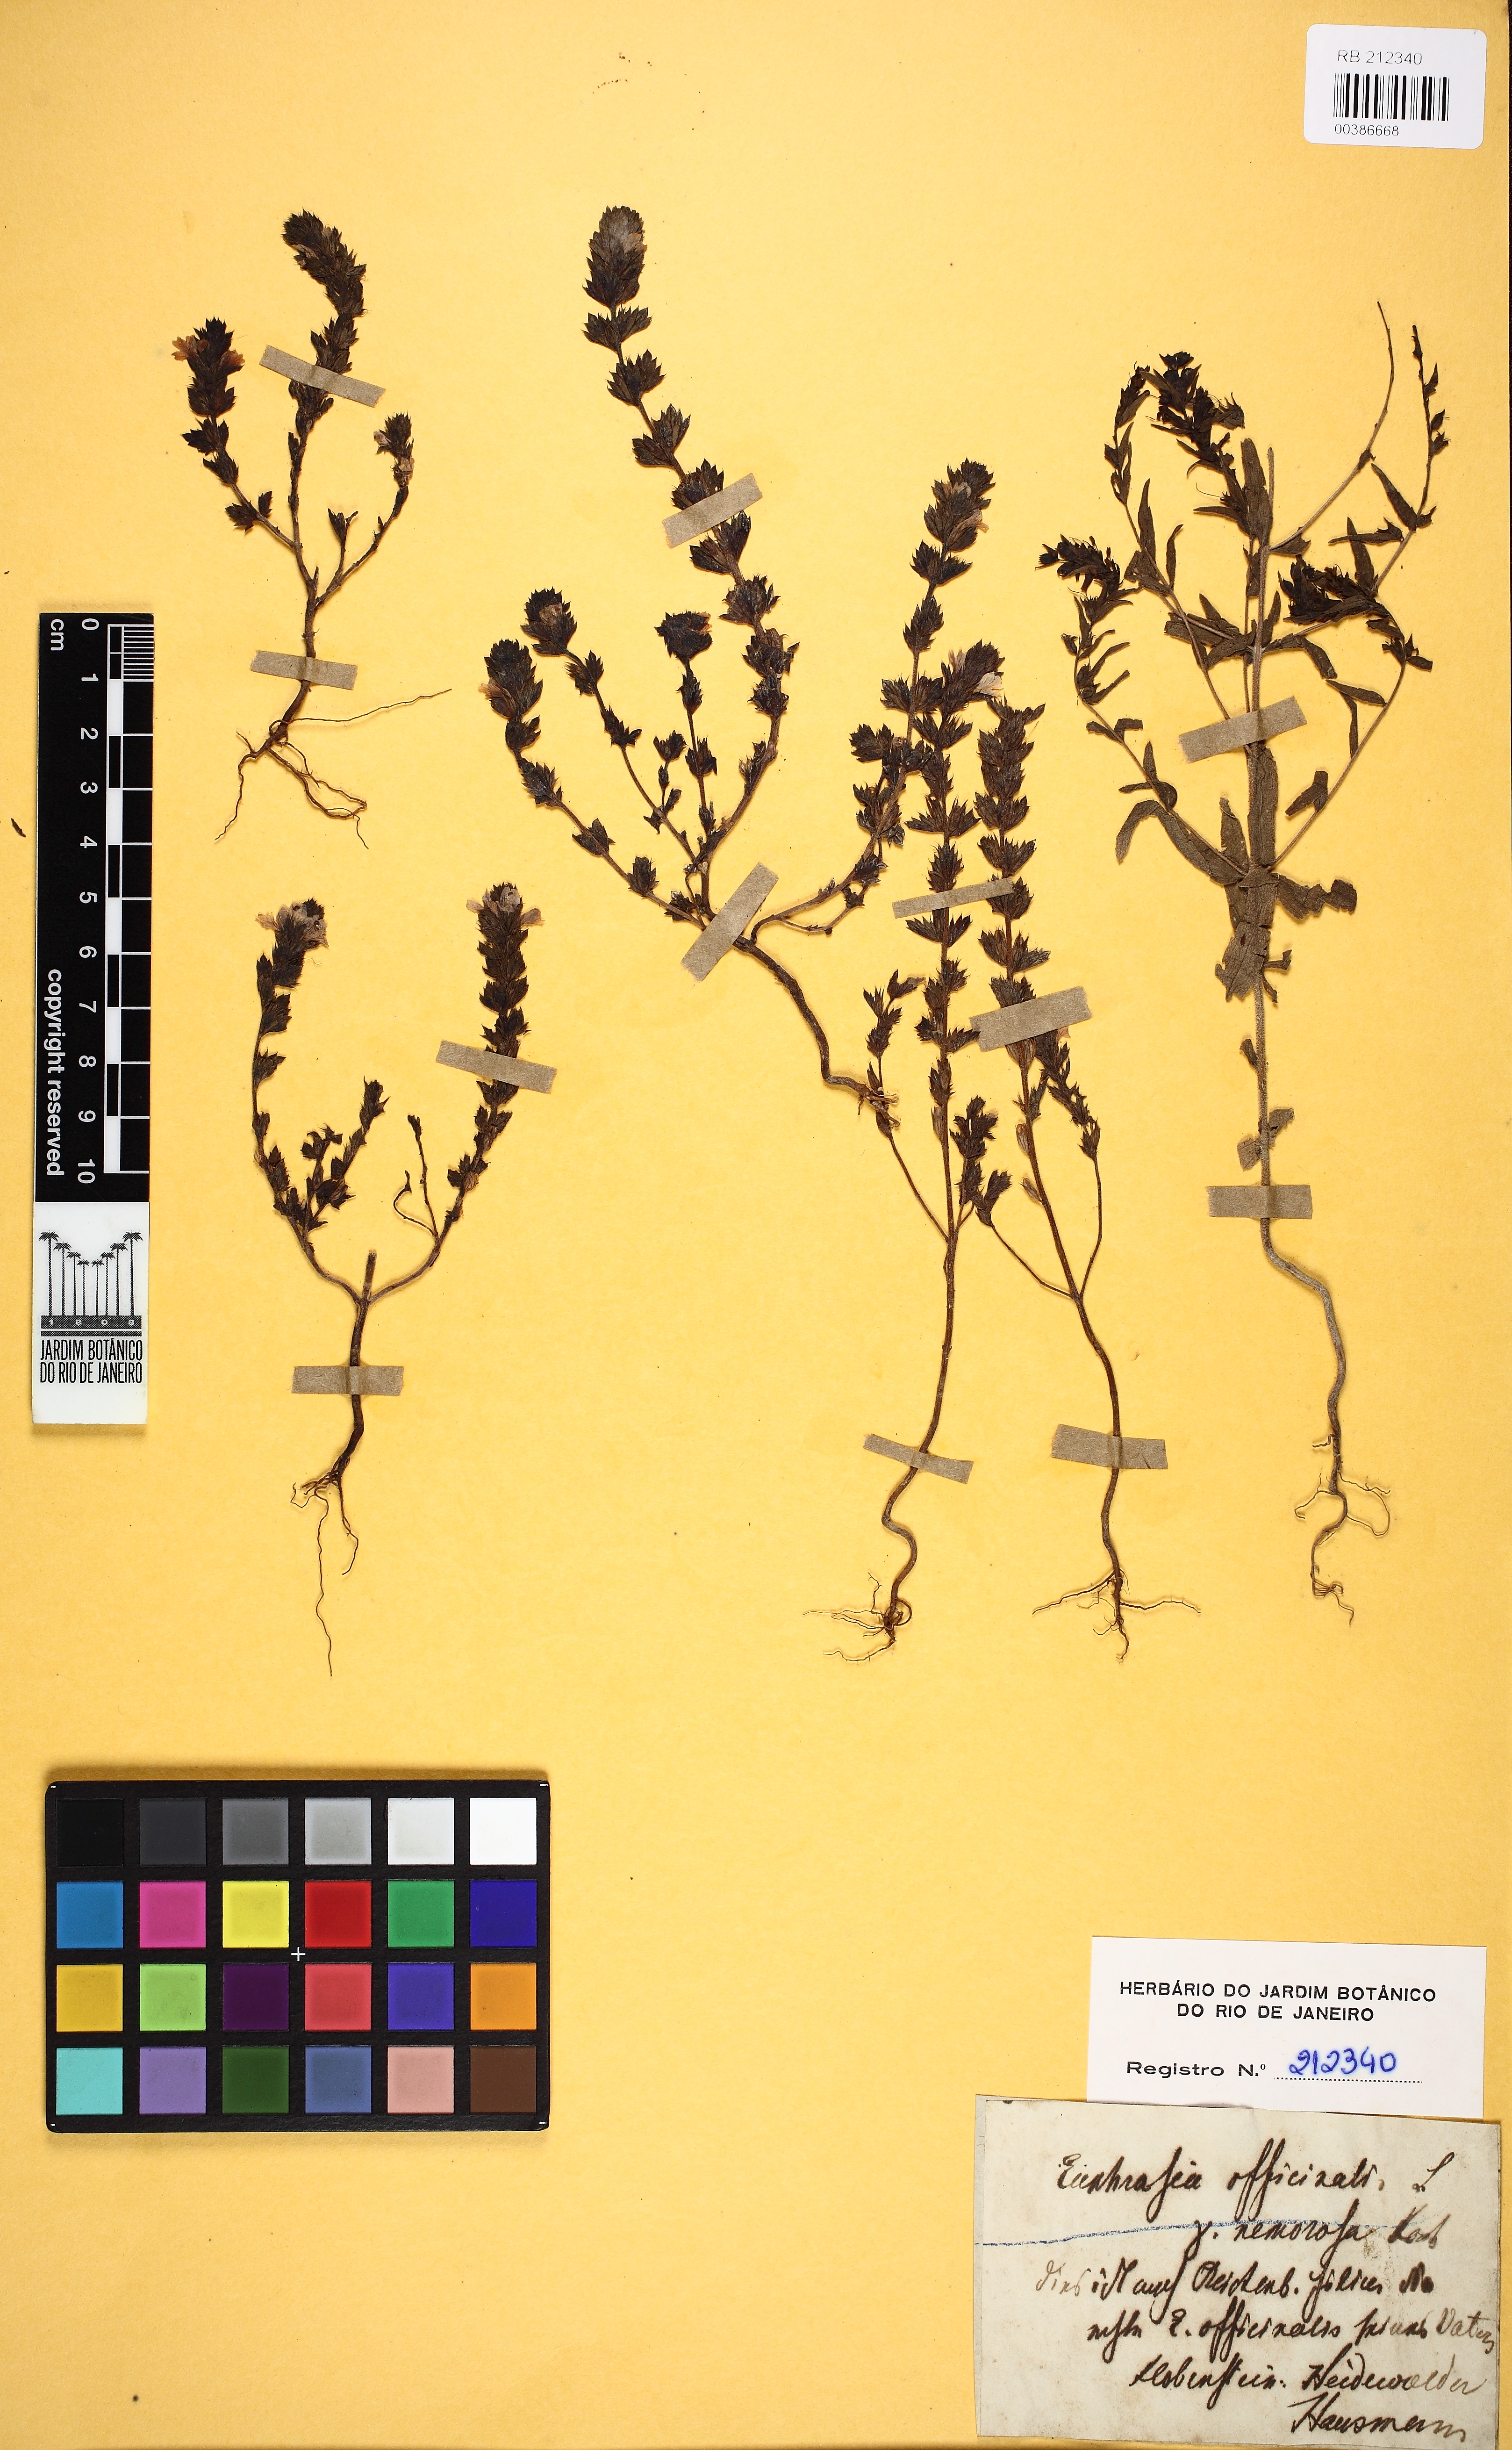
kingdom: Plantae
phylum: Tracheophyta
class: Magnoliopsida
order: Lamiales
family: Orobanchaceae
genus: Euphrasia
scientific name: Euphrasia officinalis
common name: Eyebright
